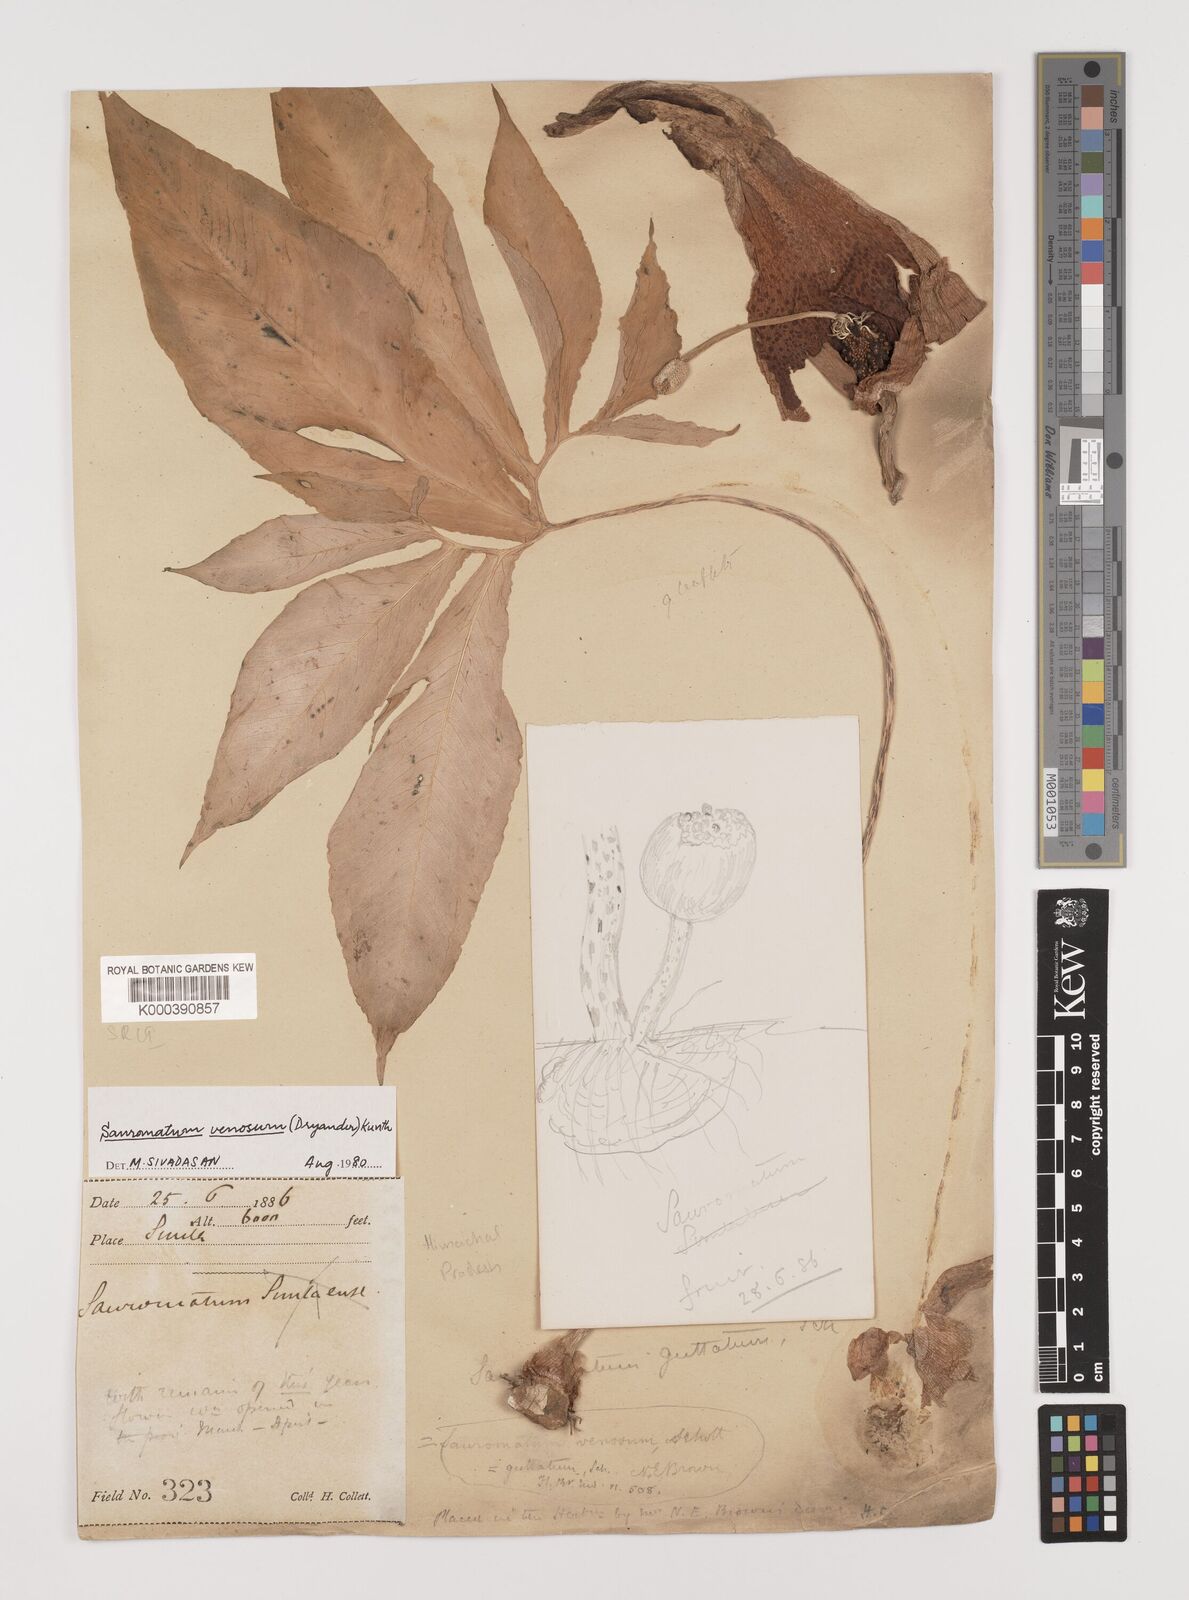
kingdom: Plantae
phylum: Tracheophyta
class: Liliopsida
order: Alismatales
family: Araceae
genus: Sauromatum
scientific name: Sauromatum venosum
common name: Voodoo lily
